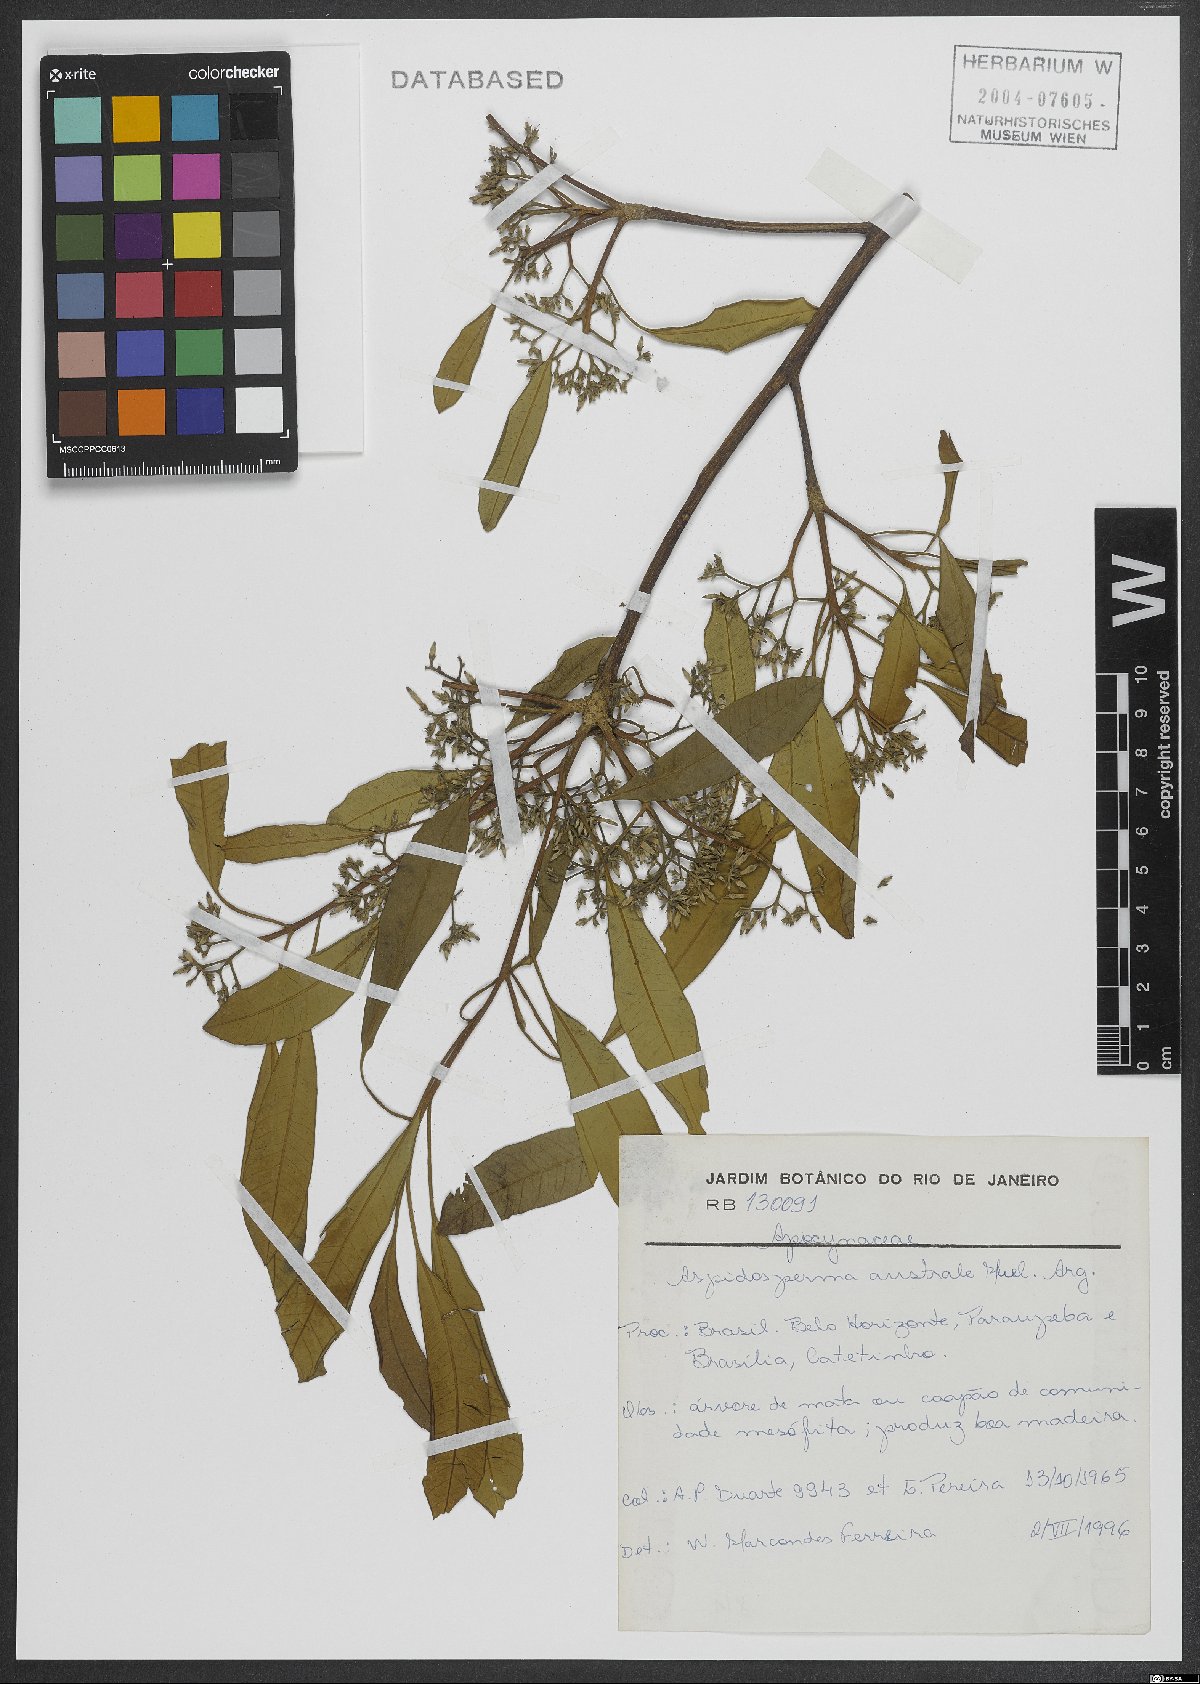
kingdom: Plantae
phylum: Tracheophyta
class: Magnoliopsida
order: Gentianales
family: Apocynaceae
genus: Aspidosperma
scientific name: Aspidosperma australe
